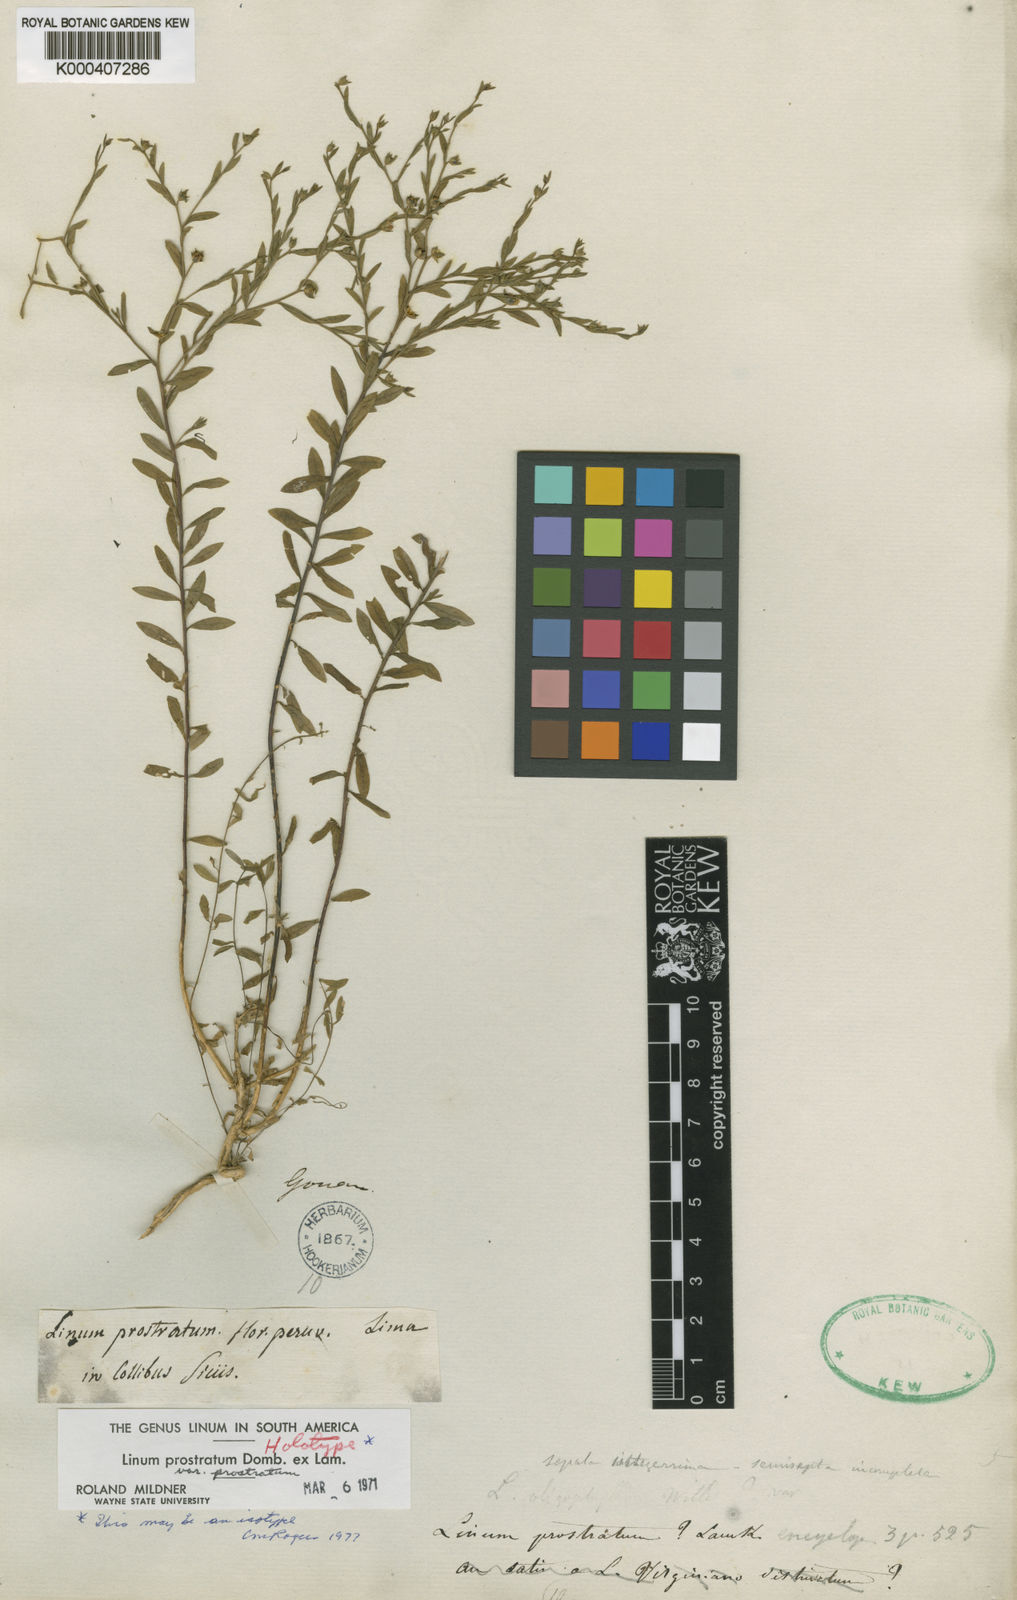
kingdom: Plantae
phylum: Tracheophyta
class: Magnoliopsida
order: Malpighiales
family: Linaceae
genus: Linum
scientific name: Linum prostratum
